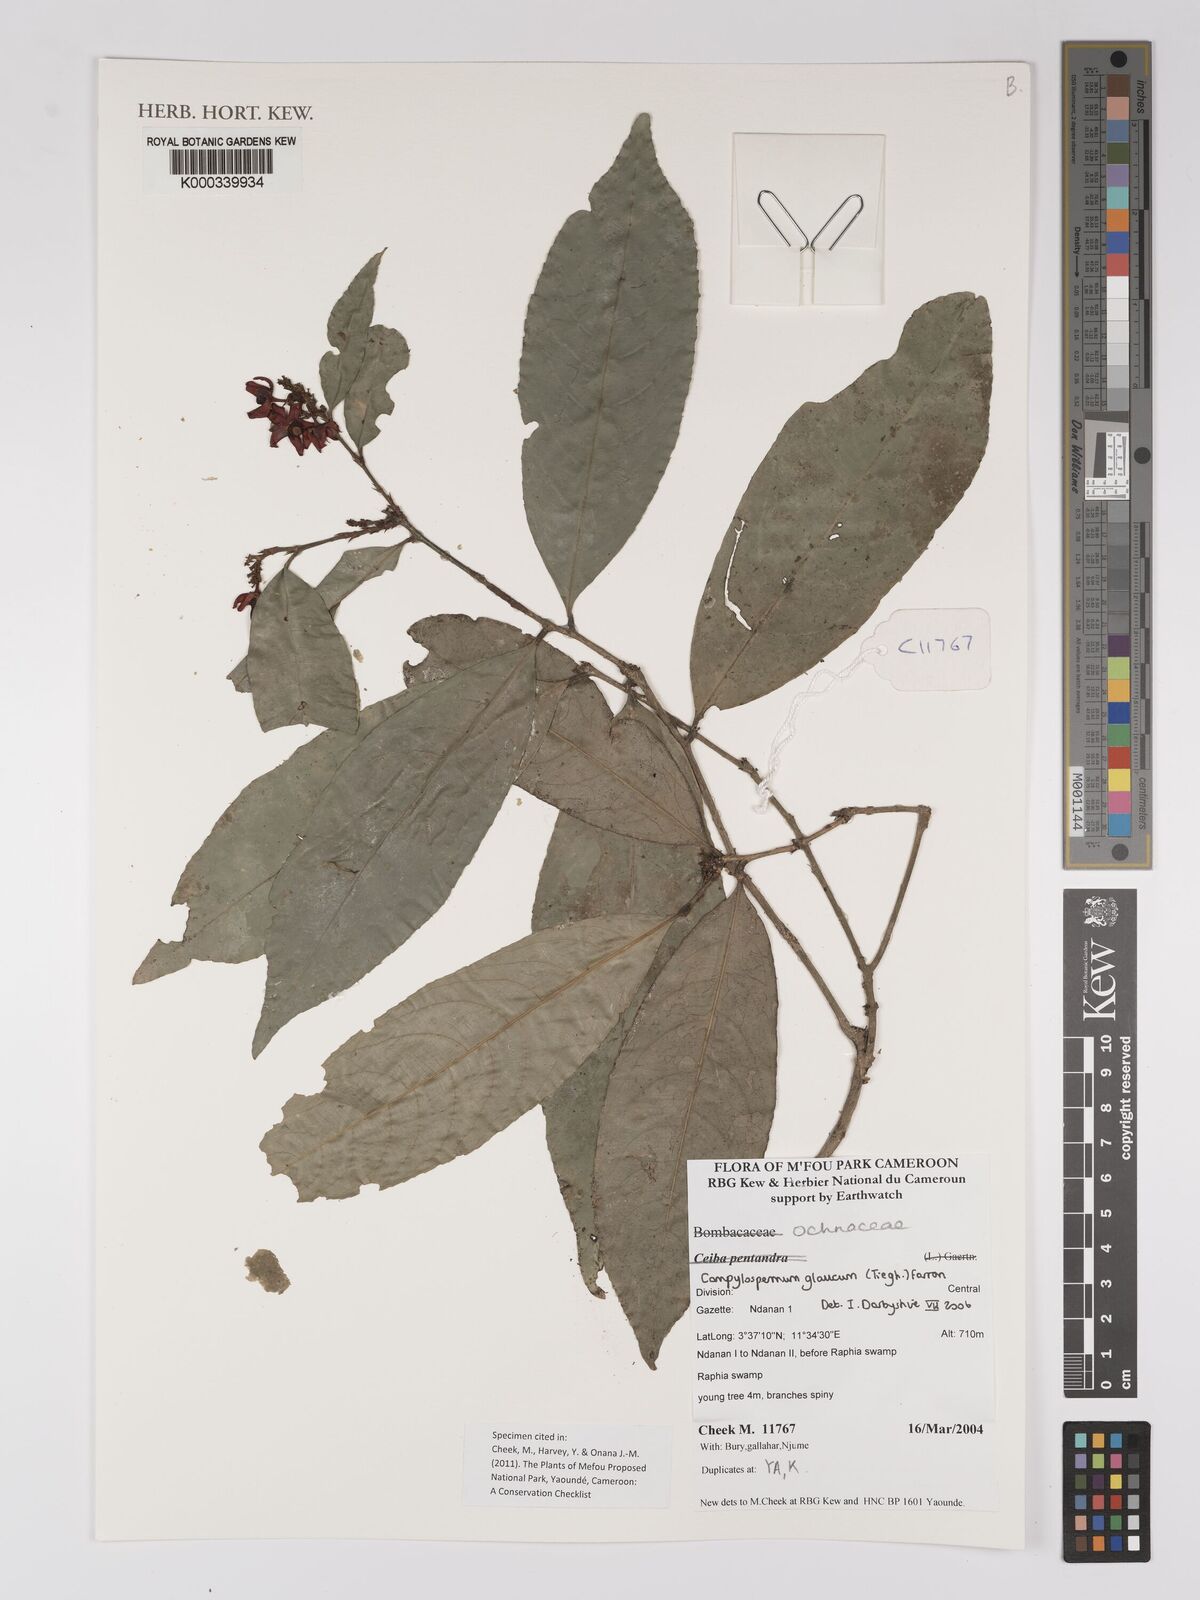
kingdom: Plantae
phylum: Tracheophyta
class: Magnoliopsida
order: Malpighiales
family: Ochnaceae
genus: Campylospermum
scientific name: Campylospermum glaucum
